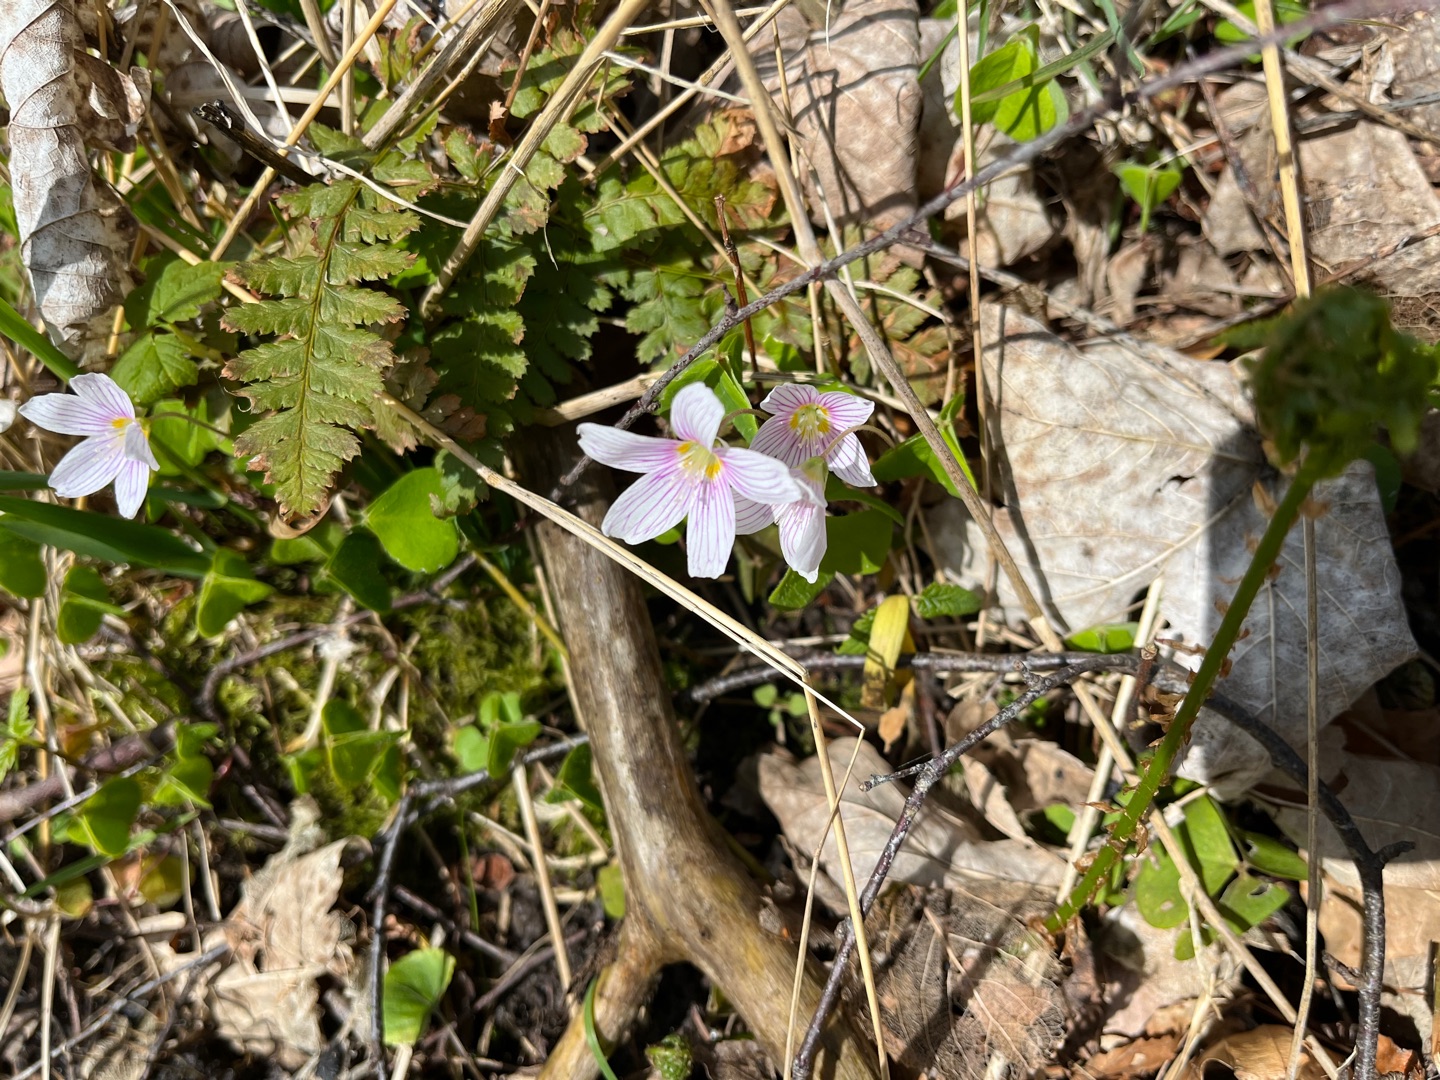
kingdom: Plantae
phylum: Tracheophyta
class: Magnoliopsida
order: Oxalidales
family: Oxalidaceae
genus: Oxalis
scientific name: Oxalis acetosella
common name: Skovsyre
